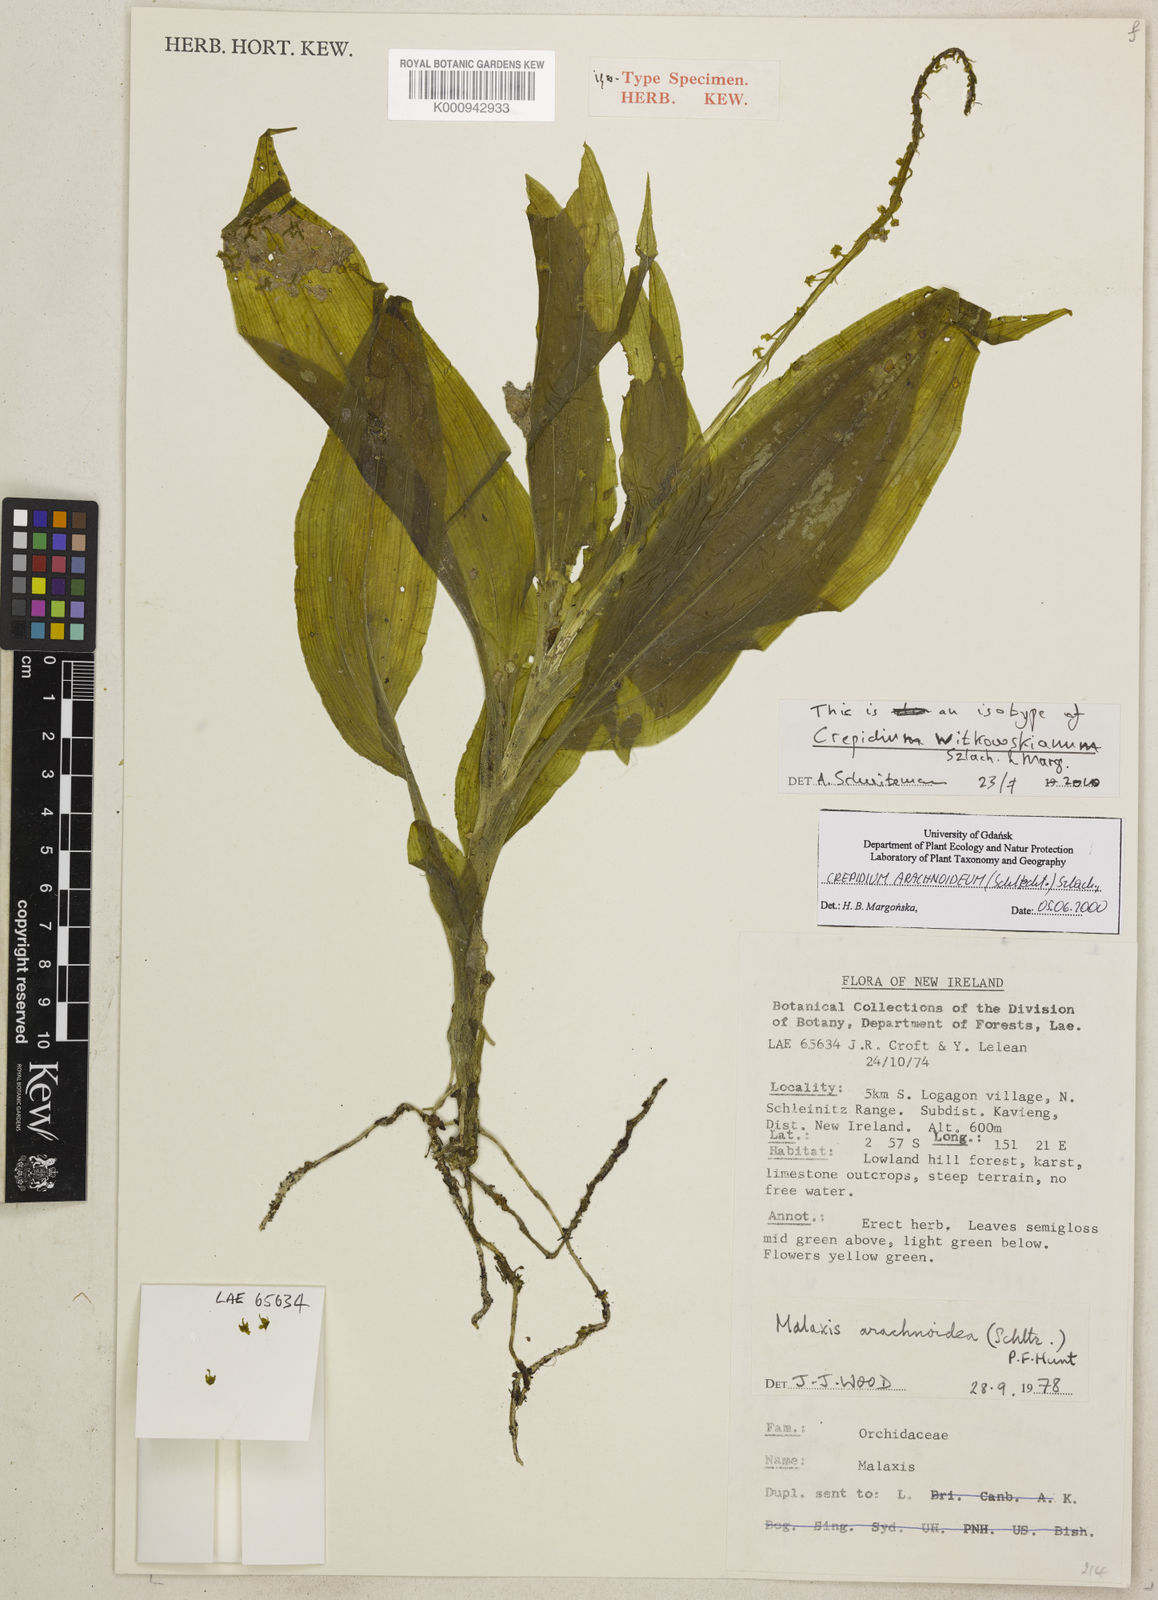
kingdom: Plantae
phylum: Tracheophyta
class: Liliopsida
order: Asparagales
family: Orchidaceae
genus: Crepidium
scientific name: Crepidium arachnoideum
